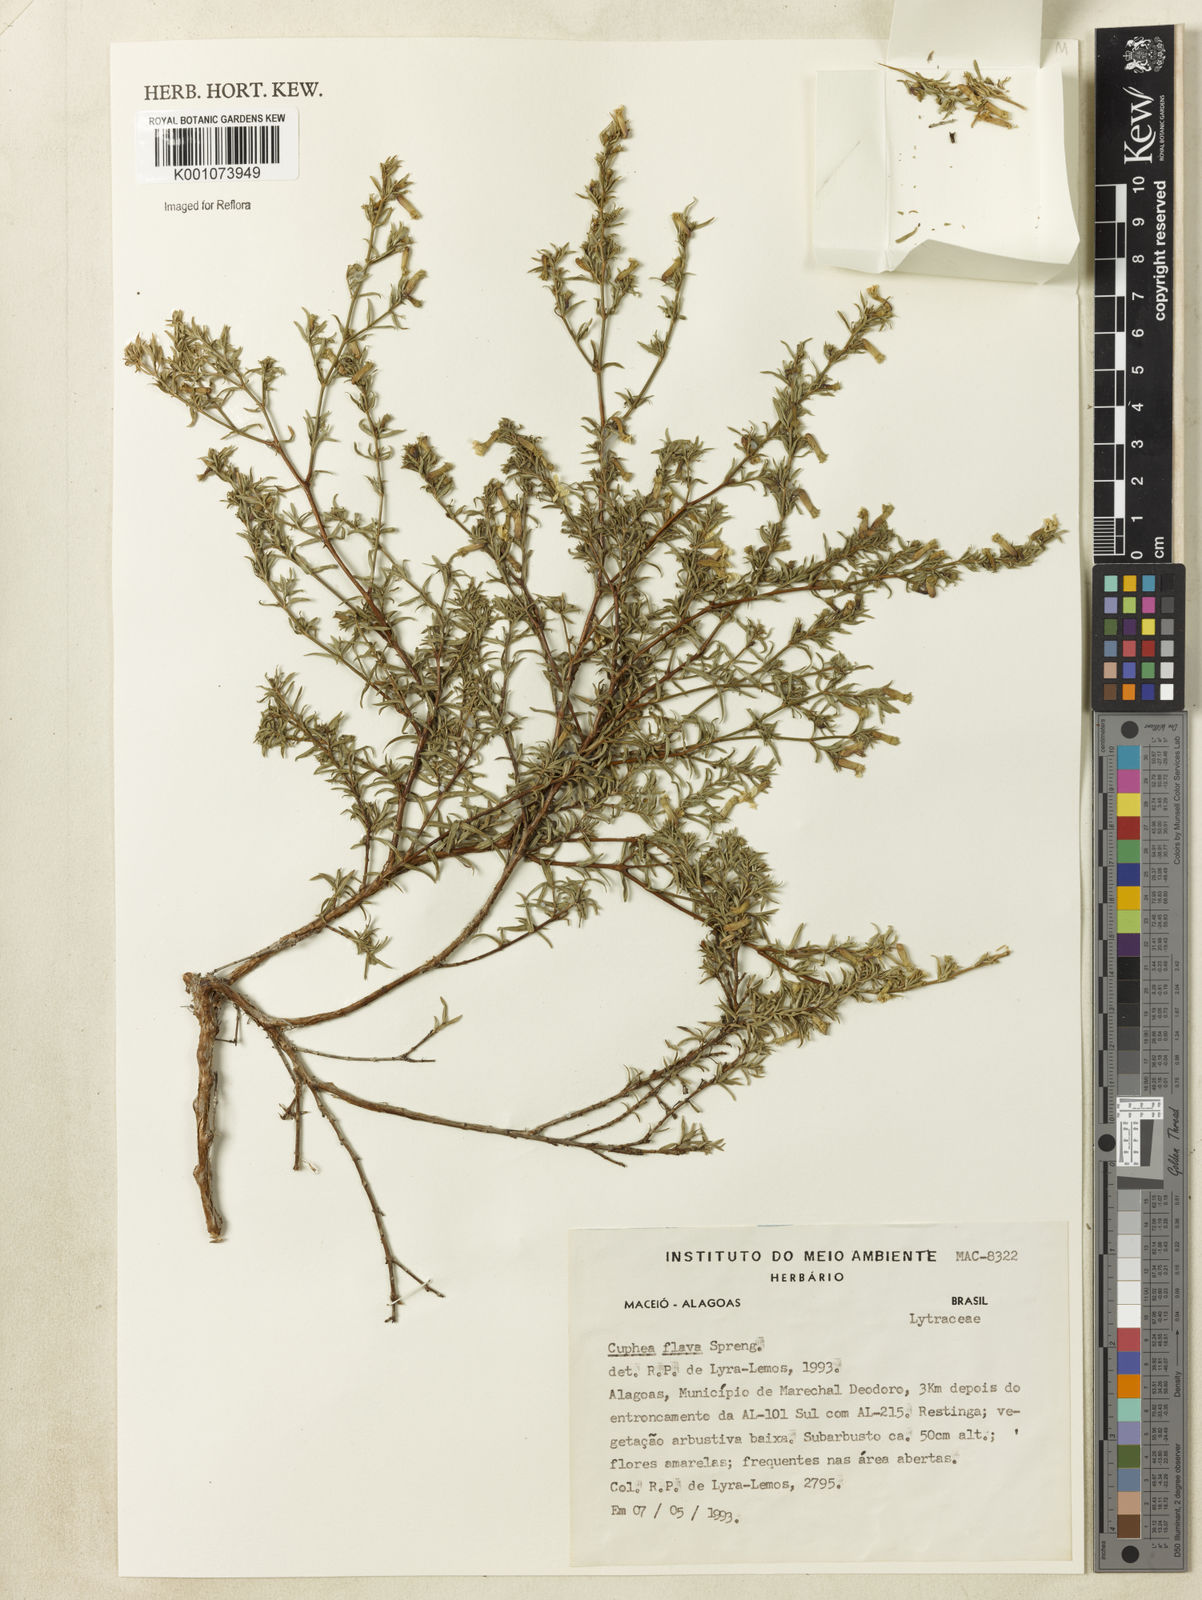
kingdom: Plantae
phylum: Tracheophyta
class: Magnoliopsida
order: Myrtales
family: Lythraceae
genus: Cuphea
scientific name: Cuphea flava
